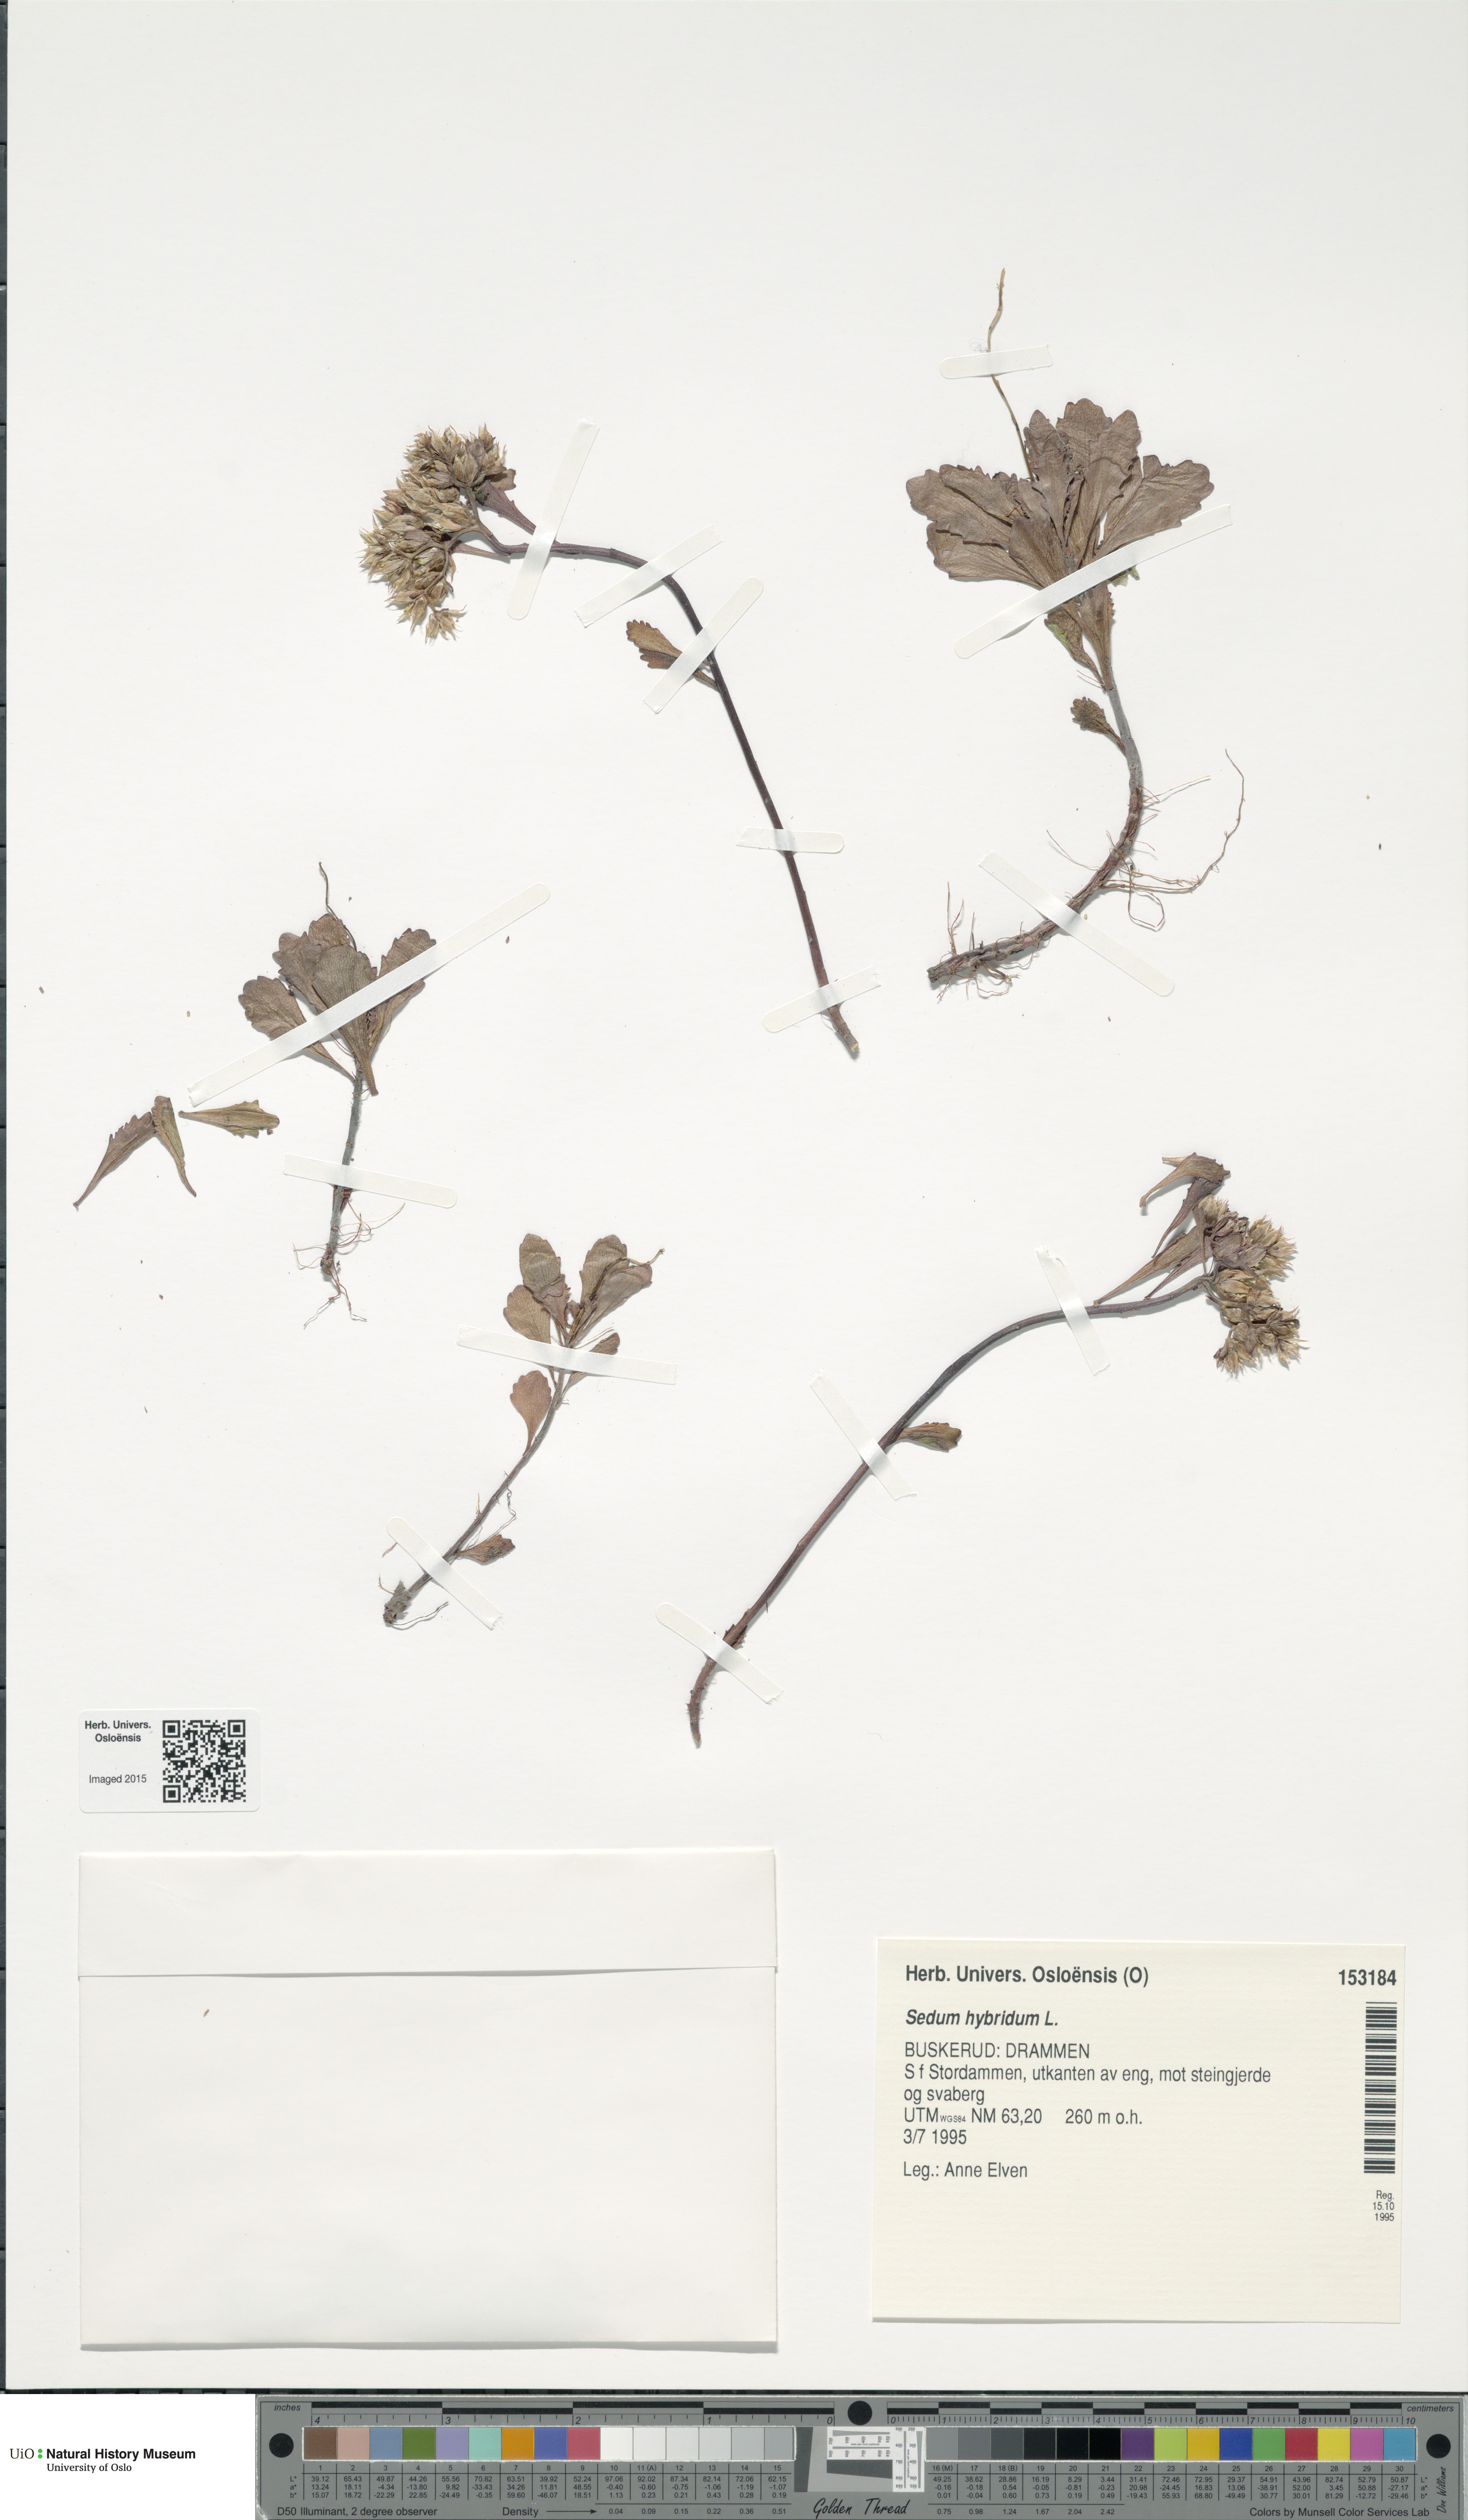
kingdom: Plantae
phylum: Tracheophyta
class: Magnoliopsida
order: Saxifragales
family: Crassulaceae
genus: Phedimus
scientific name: Phedimus hybridus
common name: Hybrid stonecrop
